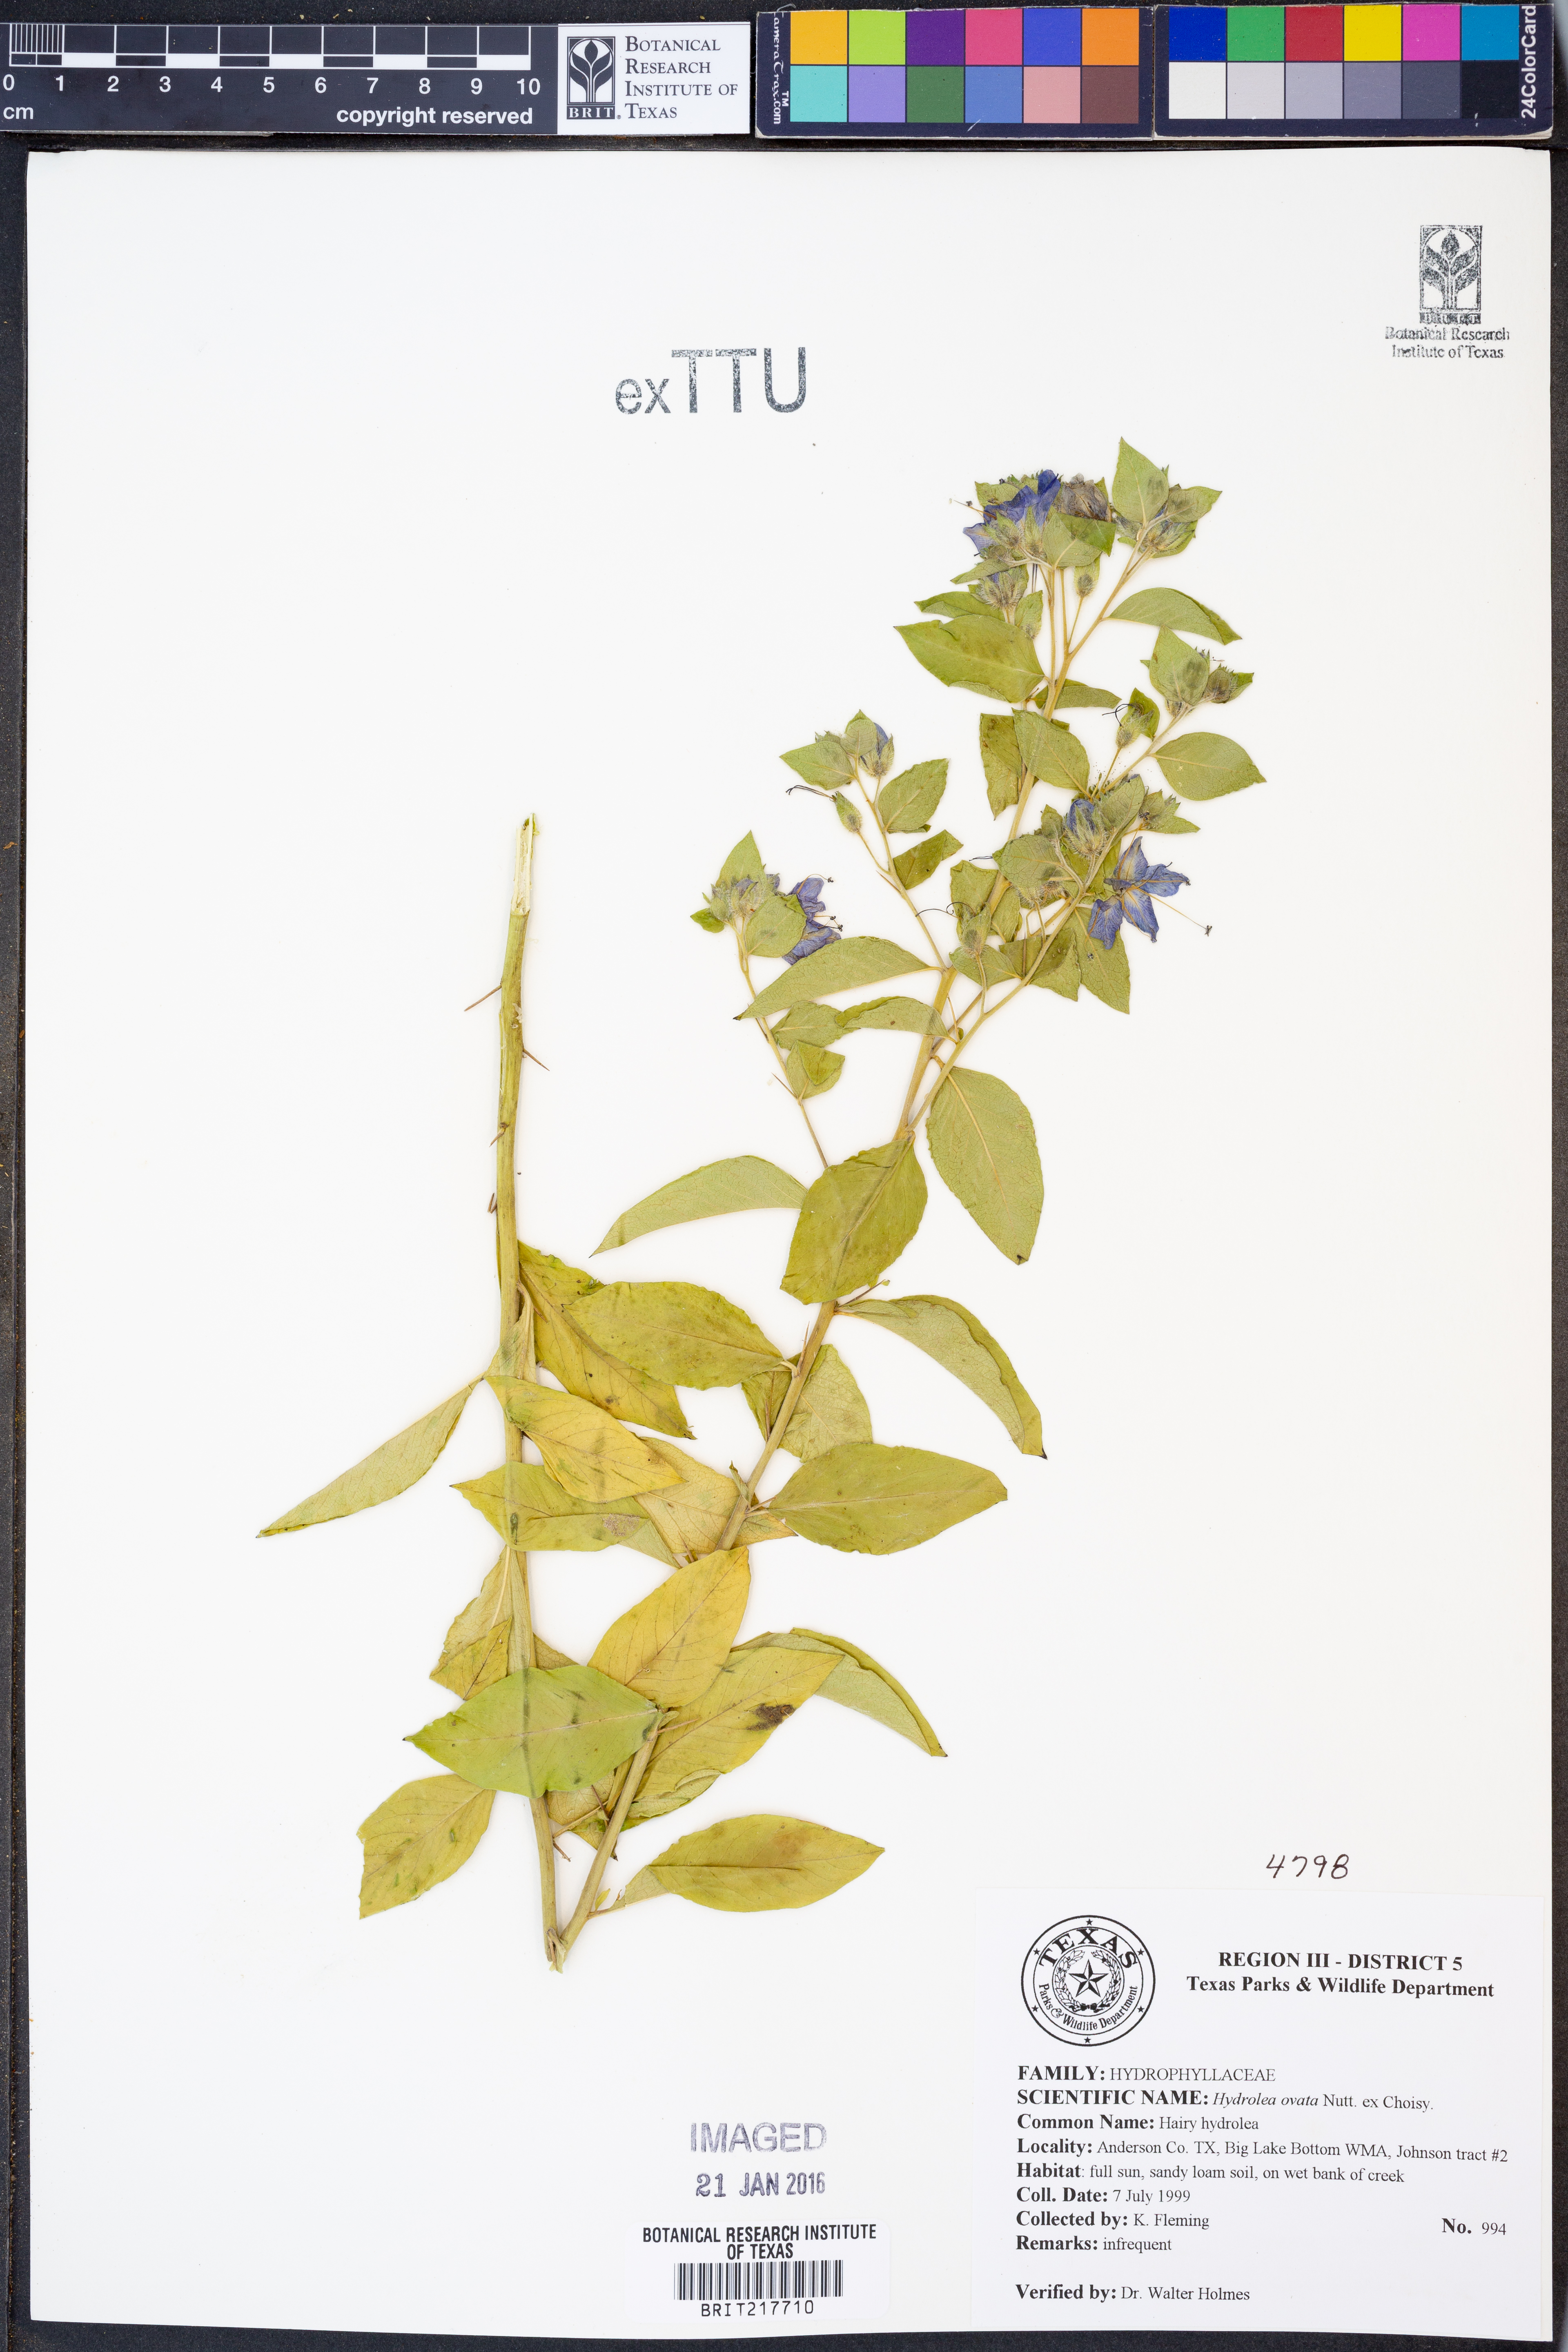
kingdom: Plantae
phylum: Tracheophyta
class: Magnoliopsida
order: Solanales
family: Hydroleaceae
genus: Hydrolea
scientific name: Hydrolea ovata
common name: Ovate false fiddleleaf
